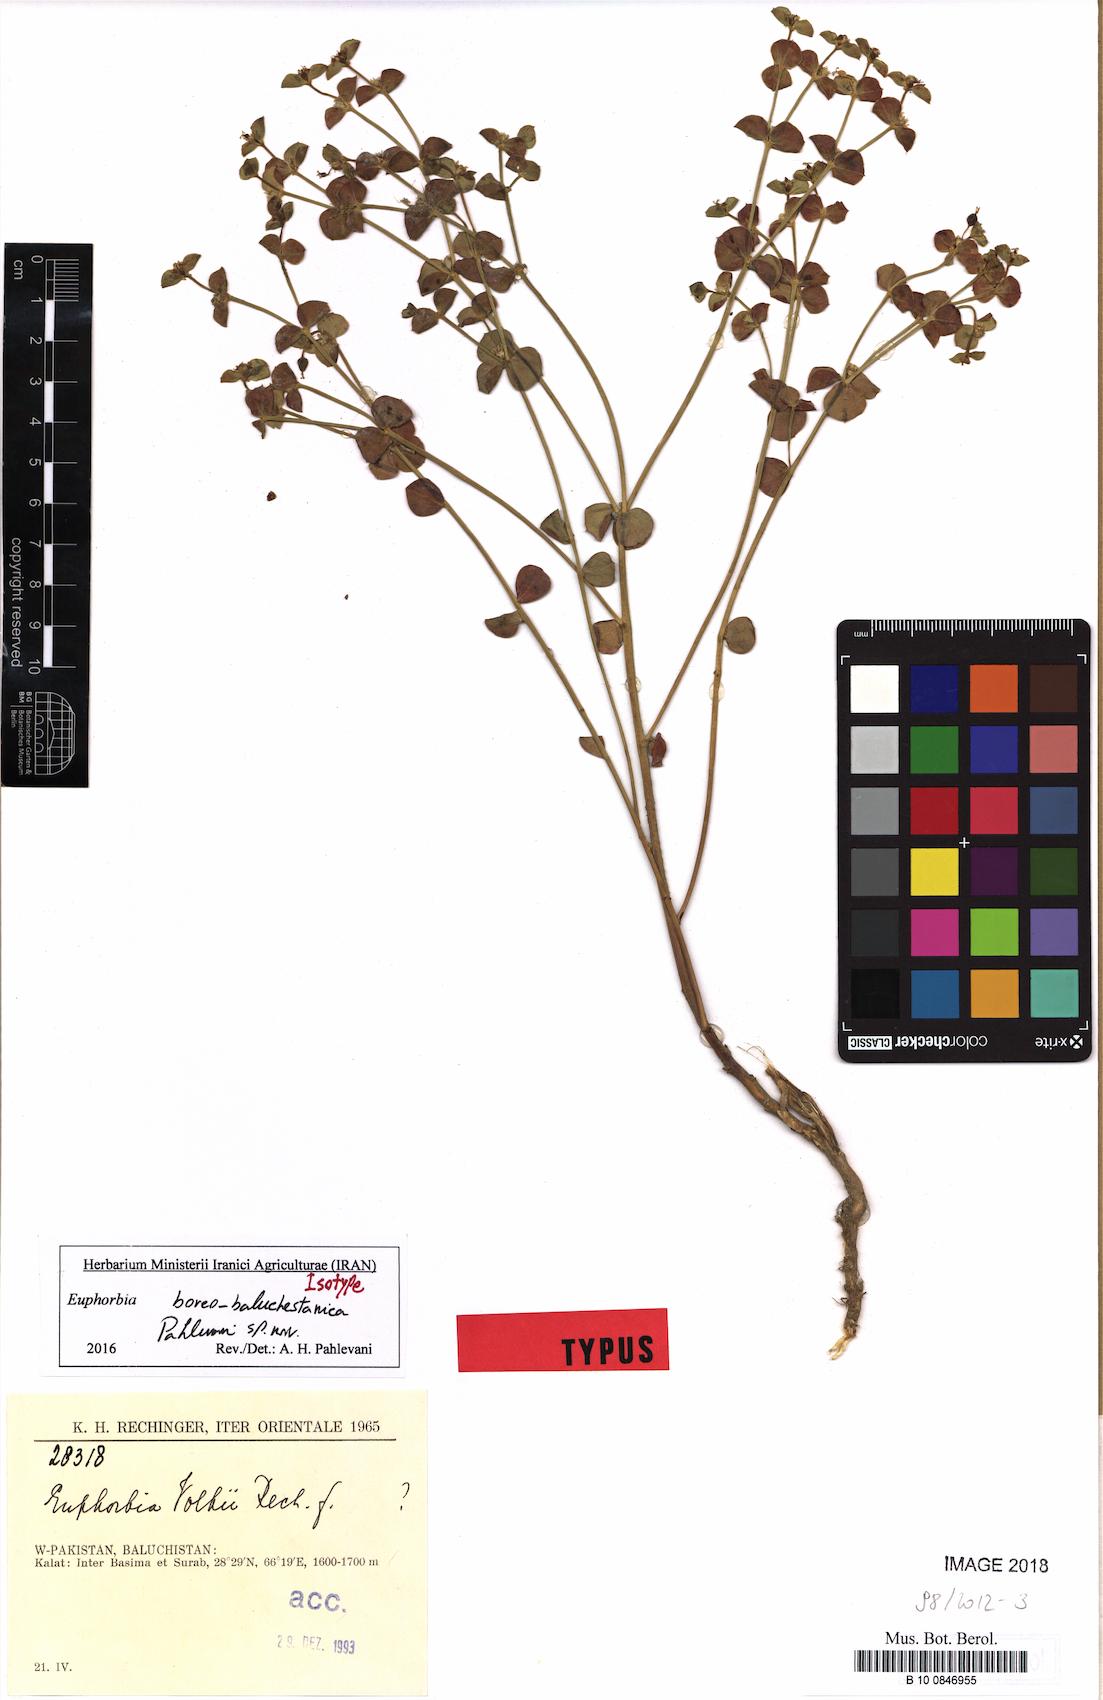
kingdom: Plantae
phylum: Tracheophyta
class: Magnoliopsida
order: Malpighiales
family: Euphorbiaceae
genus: Euphorbia
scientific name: Euphorbia boreobaluchestanica
